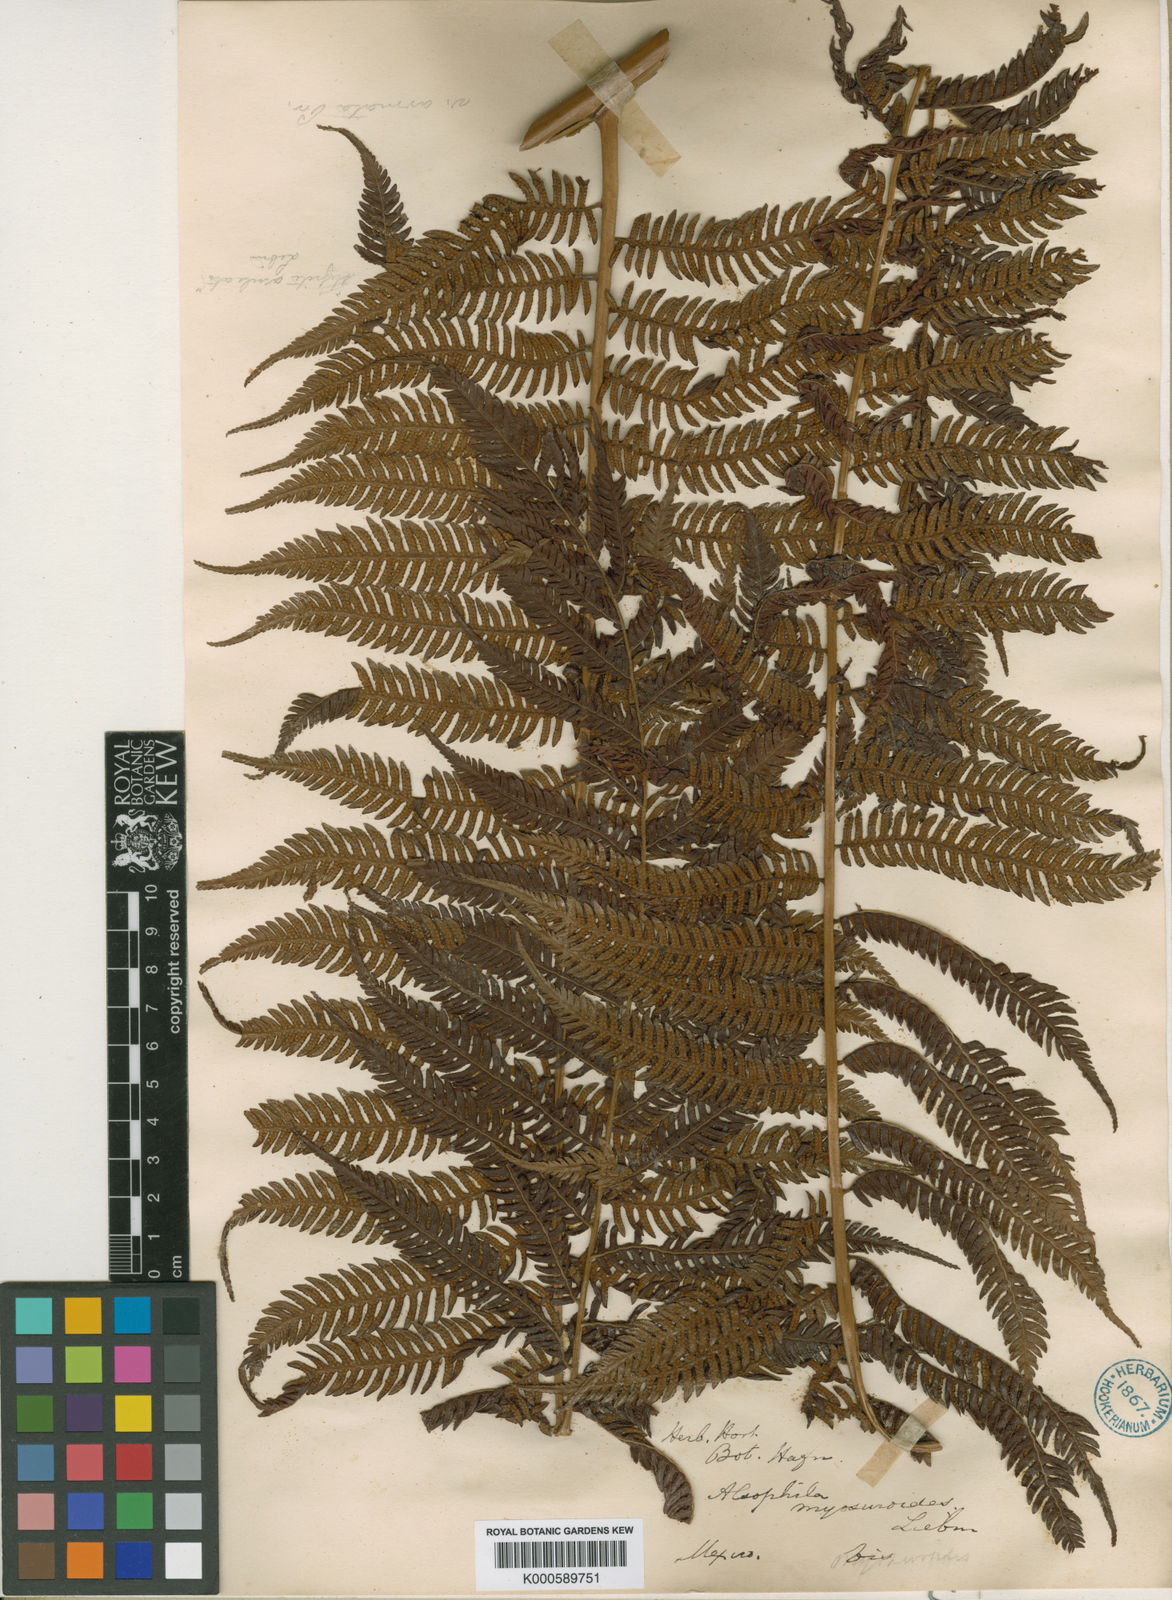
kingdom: Plantae
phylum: Tracheophyta
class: Polypodiopsida
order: Cyatheales
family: Cyatheaceae
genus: Sphaeropteris
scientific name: Sphaeropteris myosuroides
